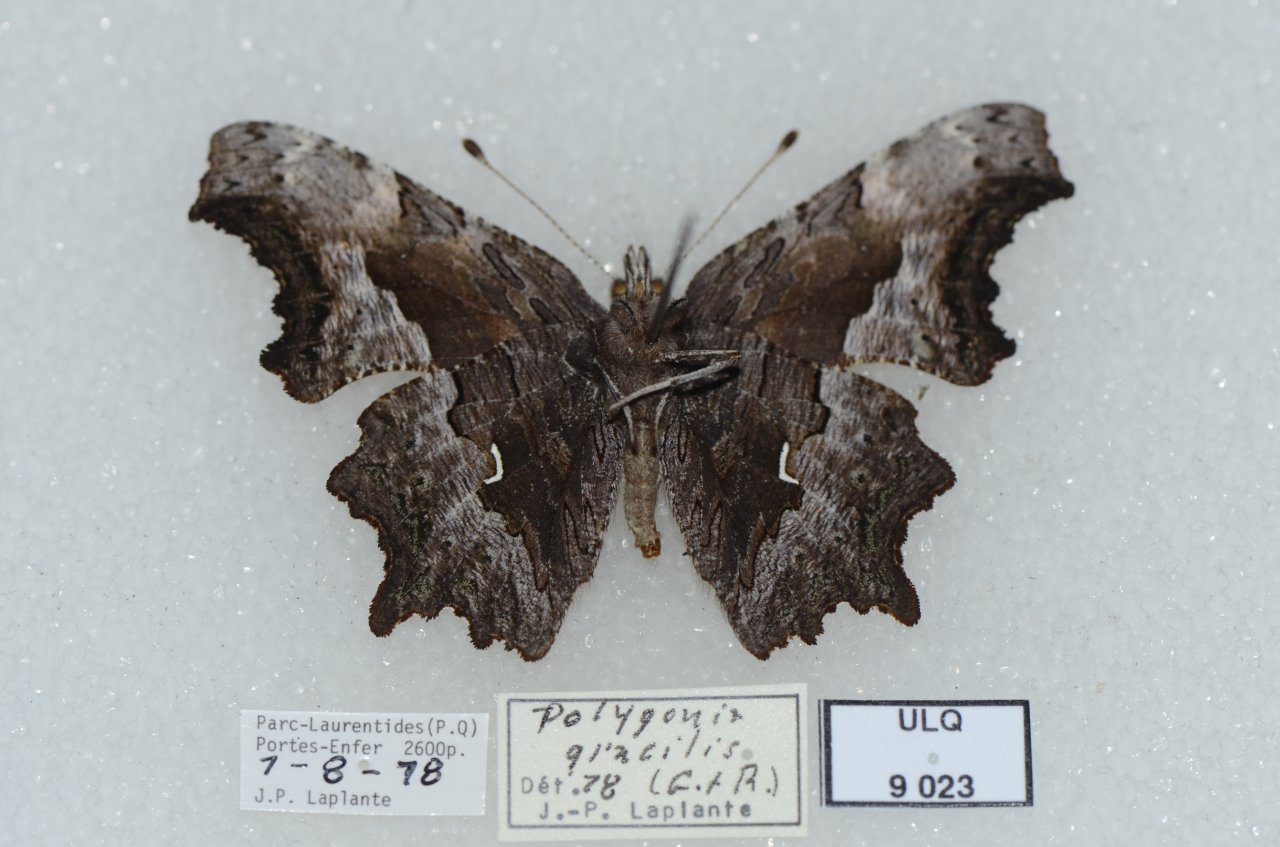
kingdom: Animalia
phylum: Arthropoda
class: Insecta
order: Lepidoptera
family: Nymphalidae
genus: Polygonia
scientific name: Polygonia gracilis
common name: Hoary Comma
